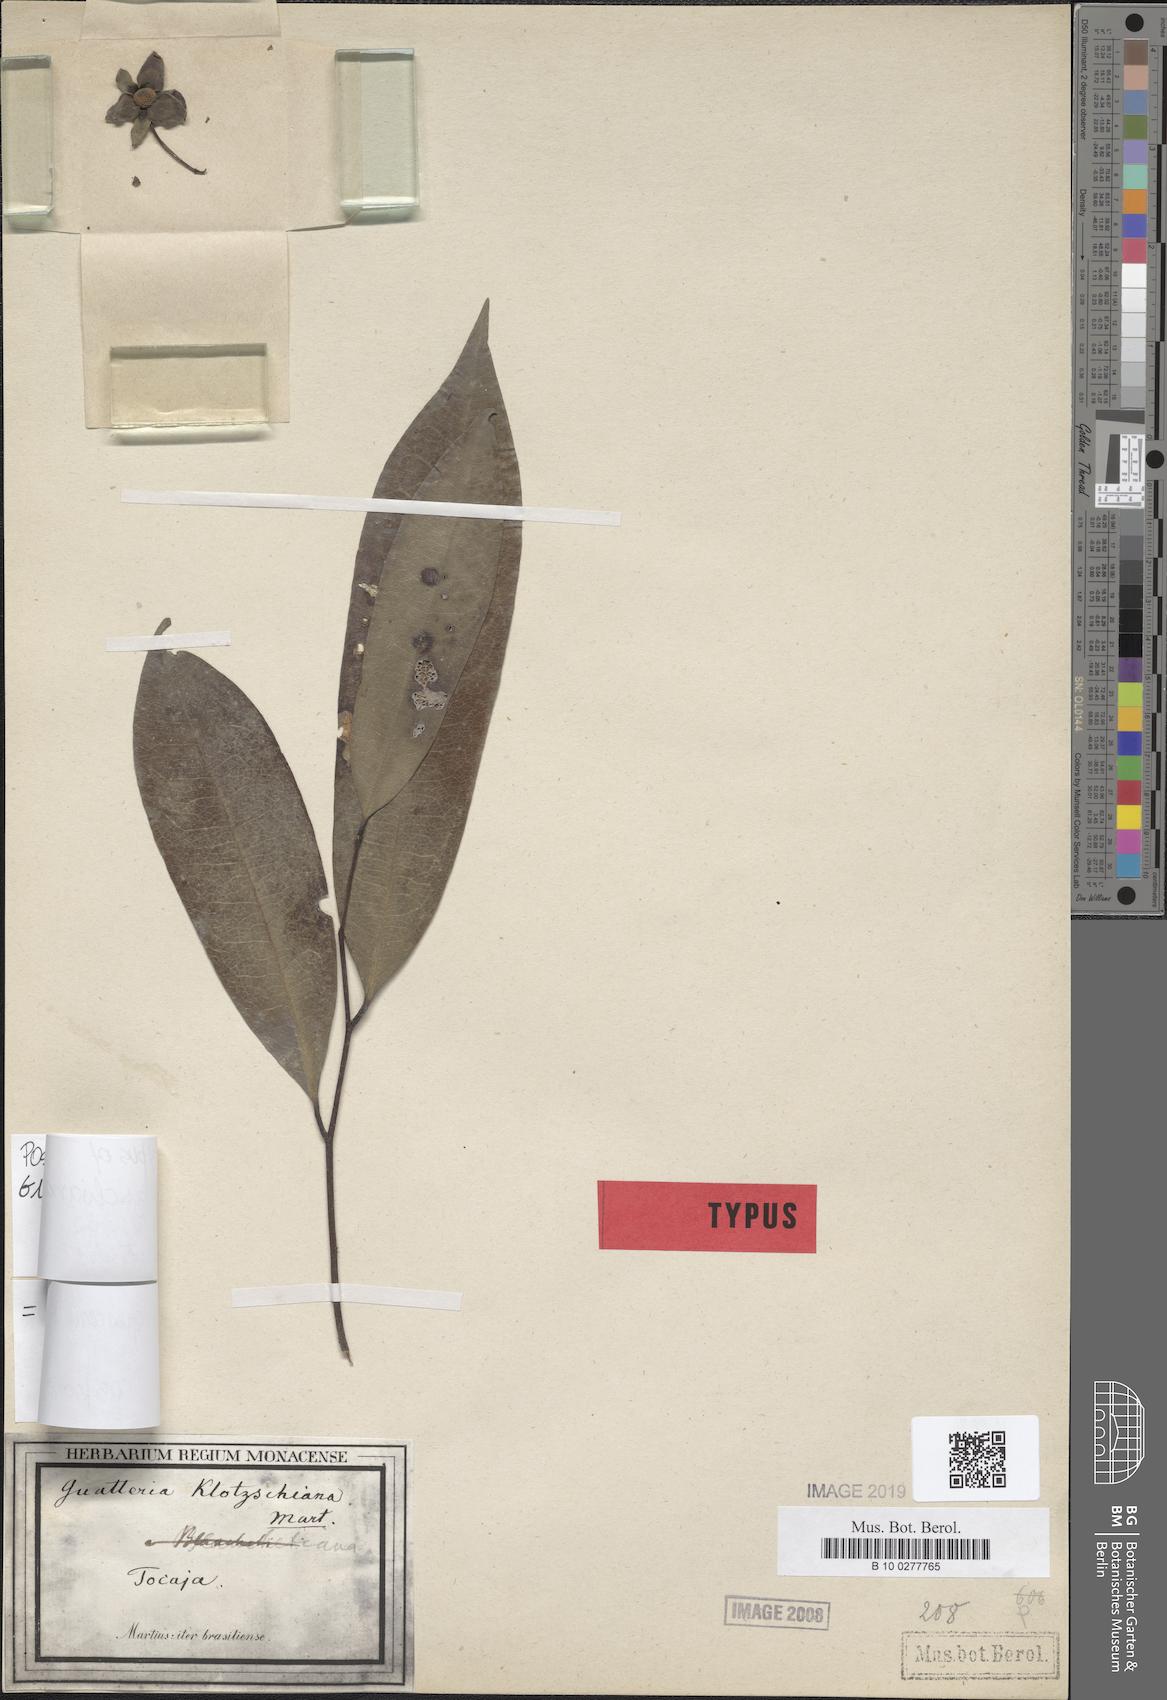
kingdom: Plantae
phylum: Tracheophyta
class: Magnoliopsida
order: Magnoliales
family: Annonaceae
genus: Guatteria
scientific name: Guatteria australis
